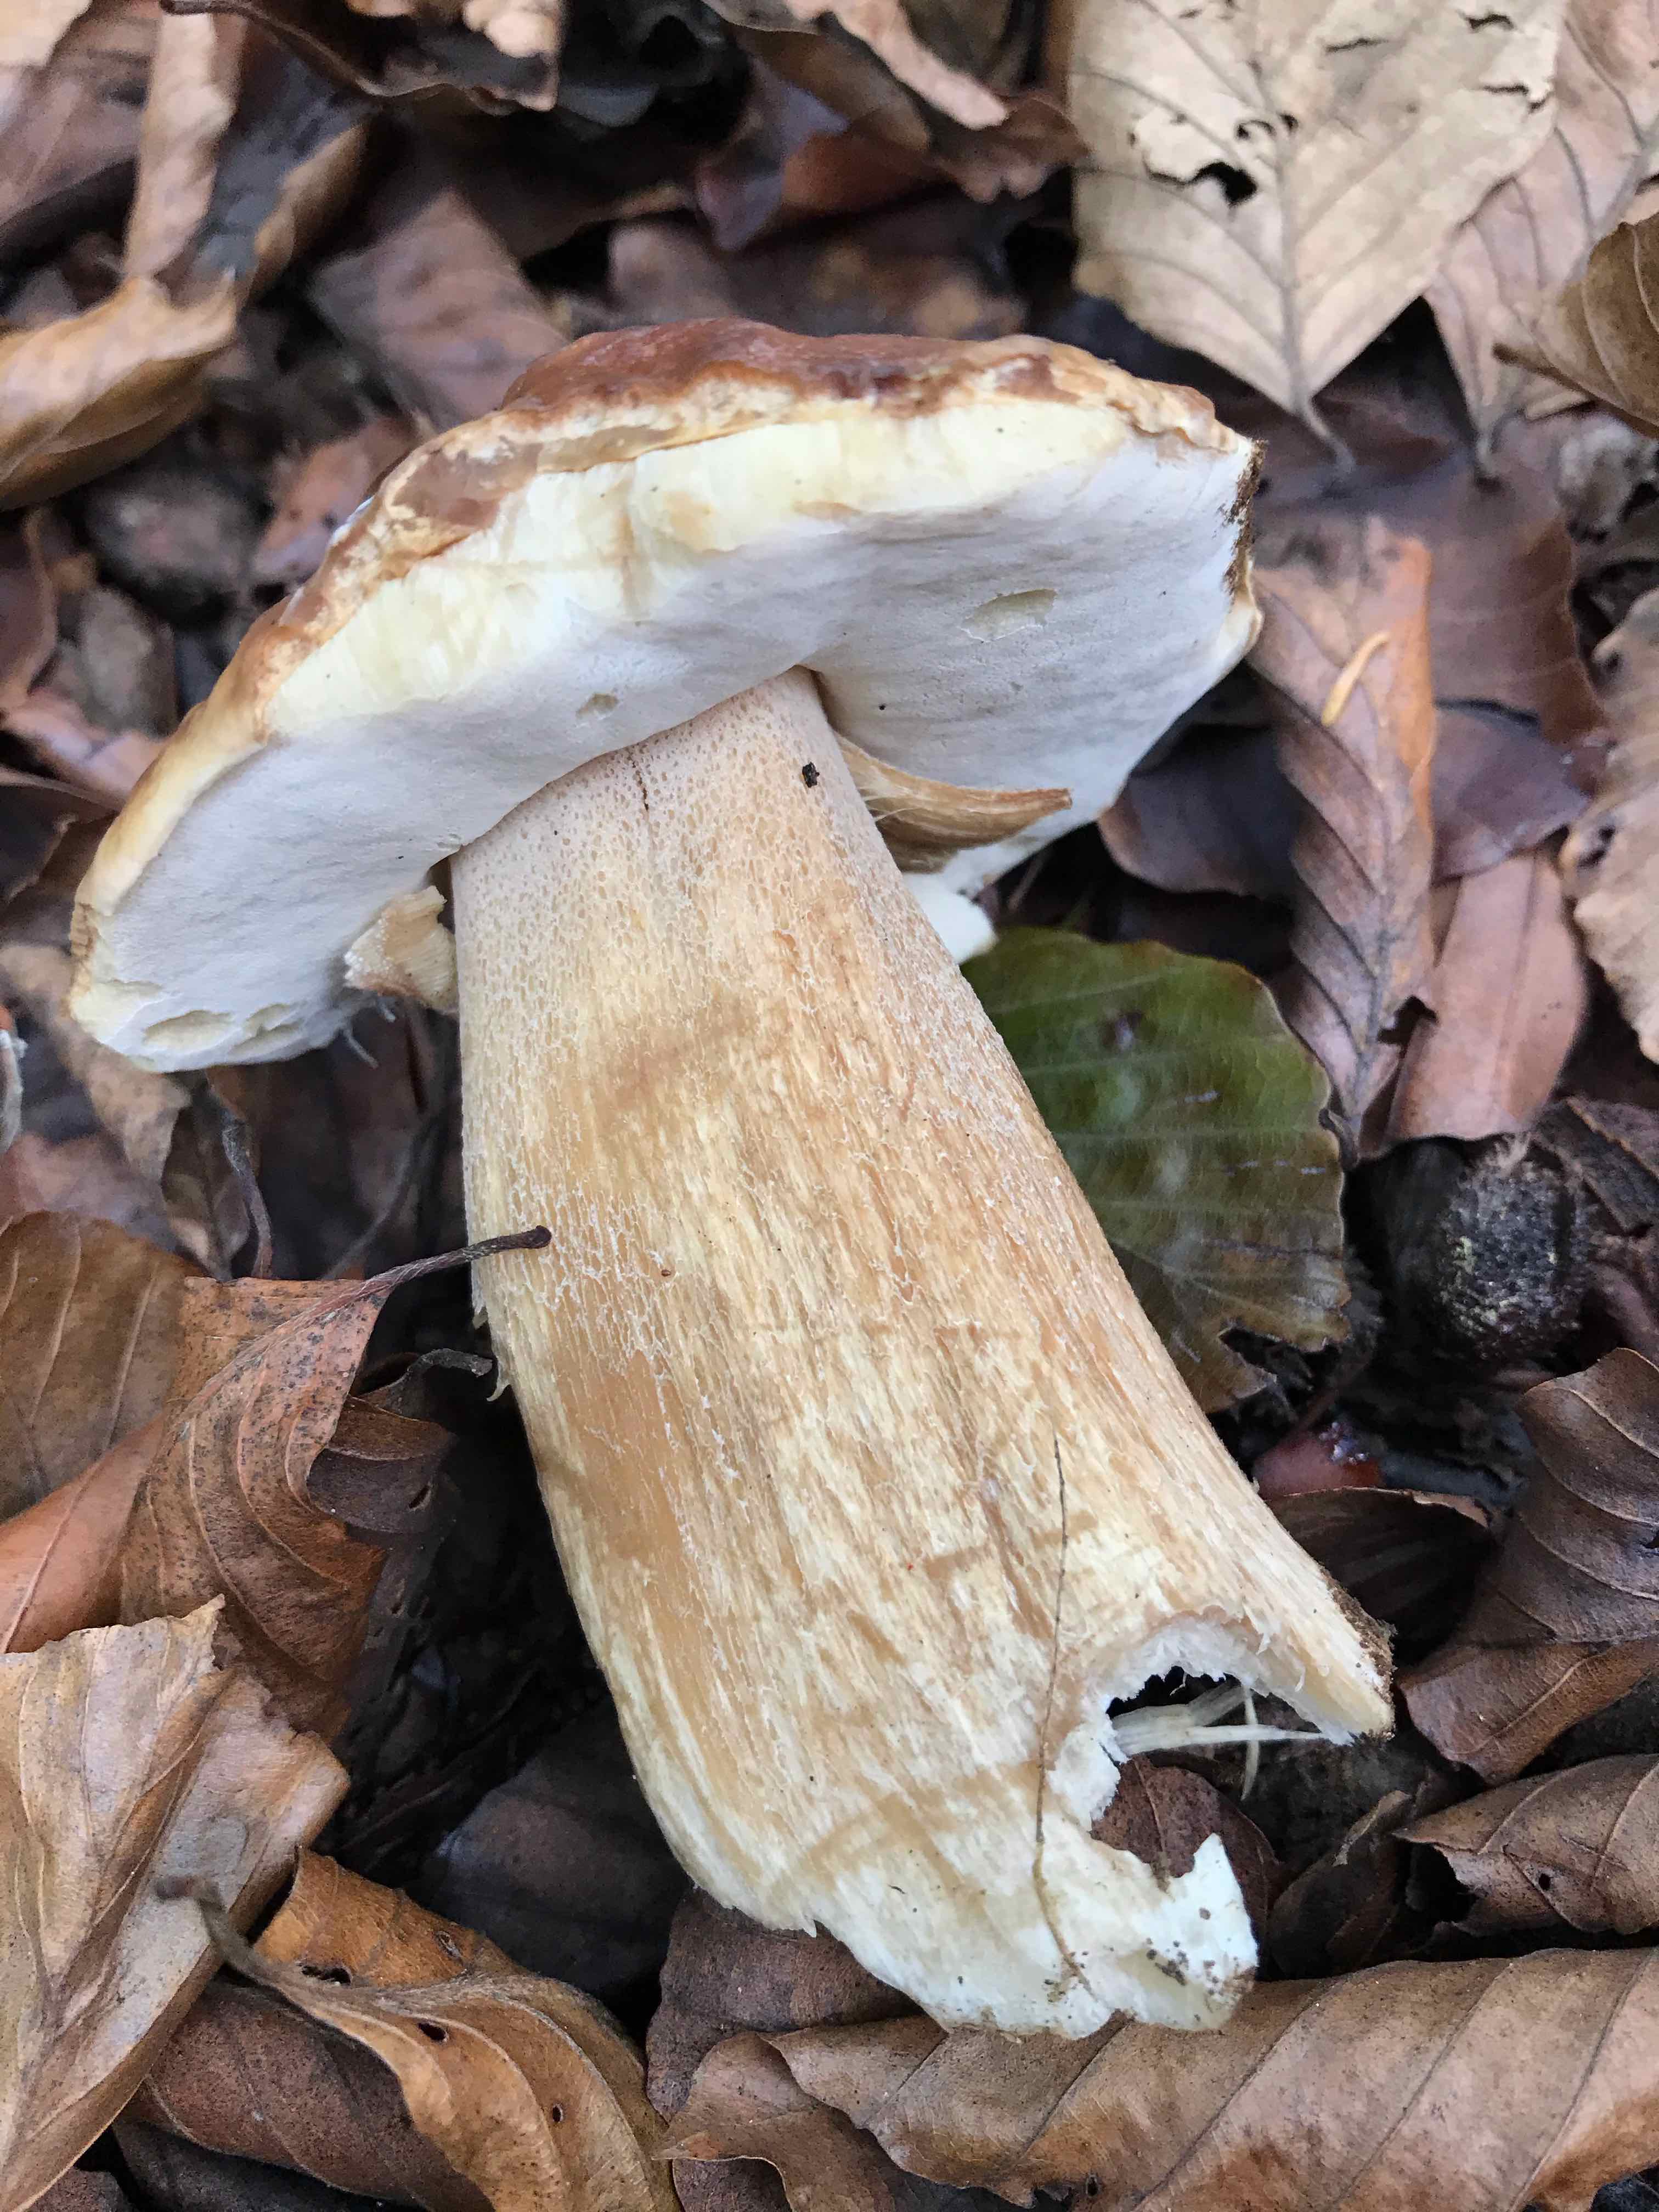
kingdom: Fungi
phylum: Basidiomycota
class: Agaricomycetes
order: Boletales
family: Boletaceae
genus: Boletus
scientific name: Boletus edulis
